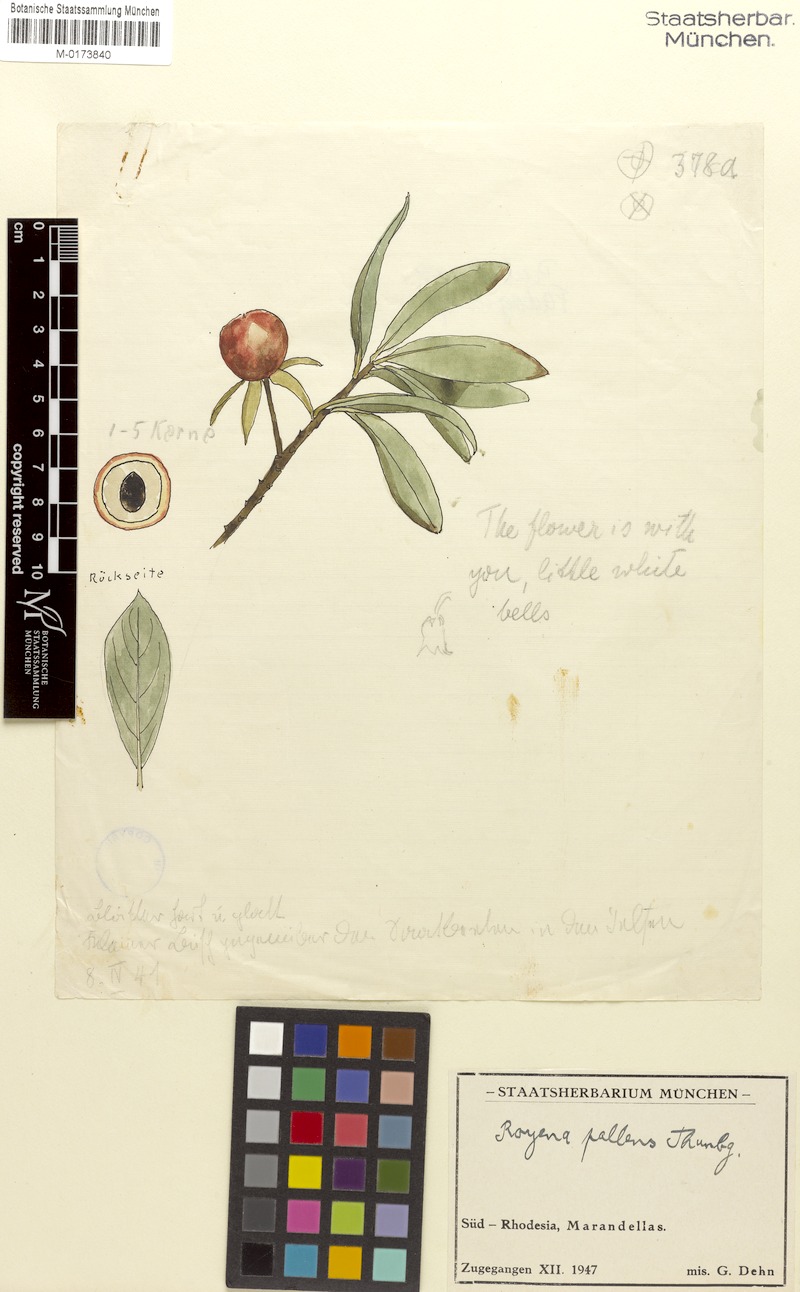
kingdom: Plantae
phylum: Tracheophyta
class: Magnoliopsida
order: Ericales
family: Ebenaceae
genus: Diospyros
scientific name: Diospyros pallens
